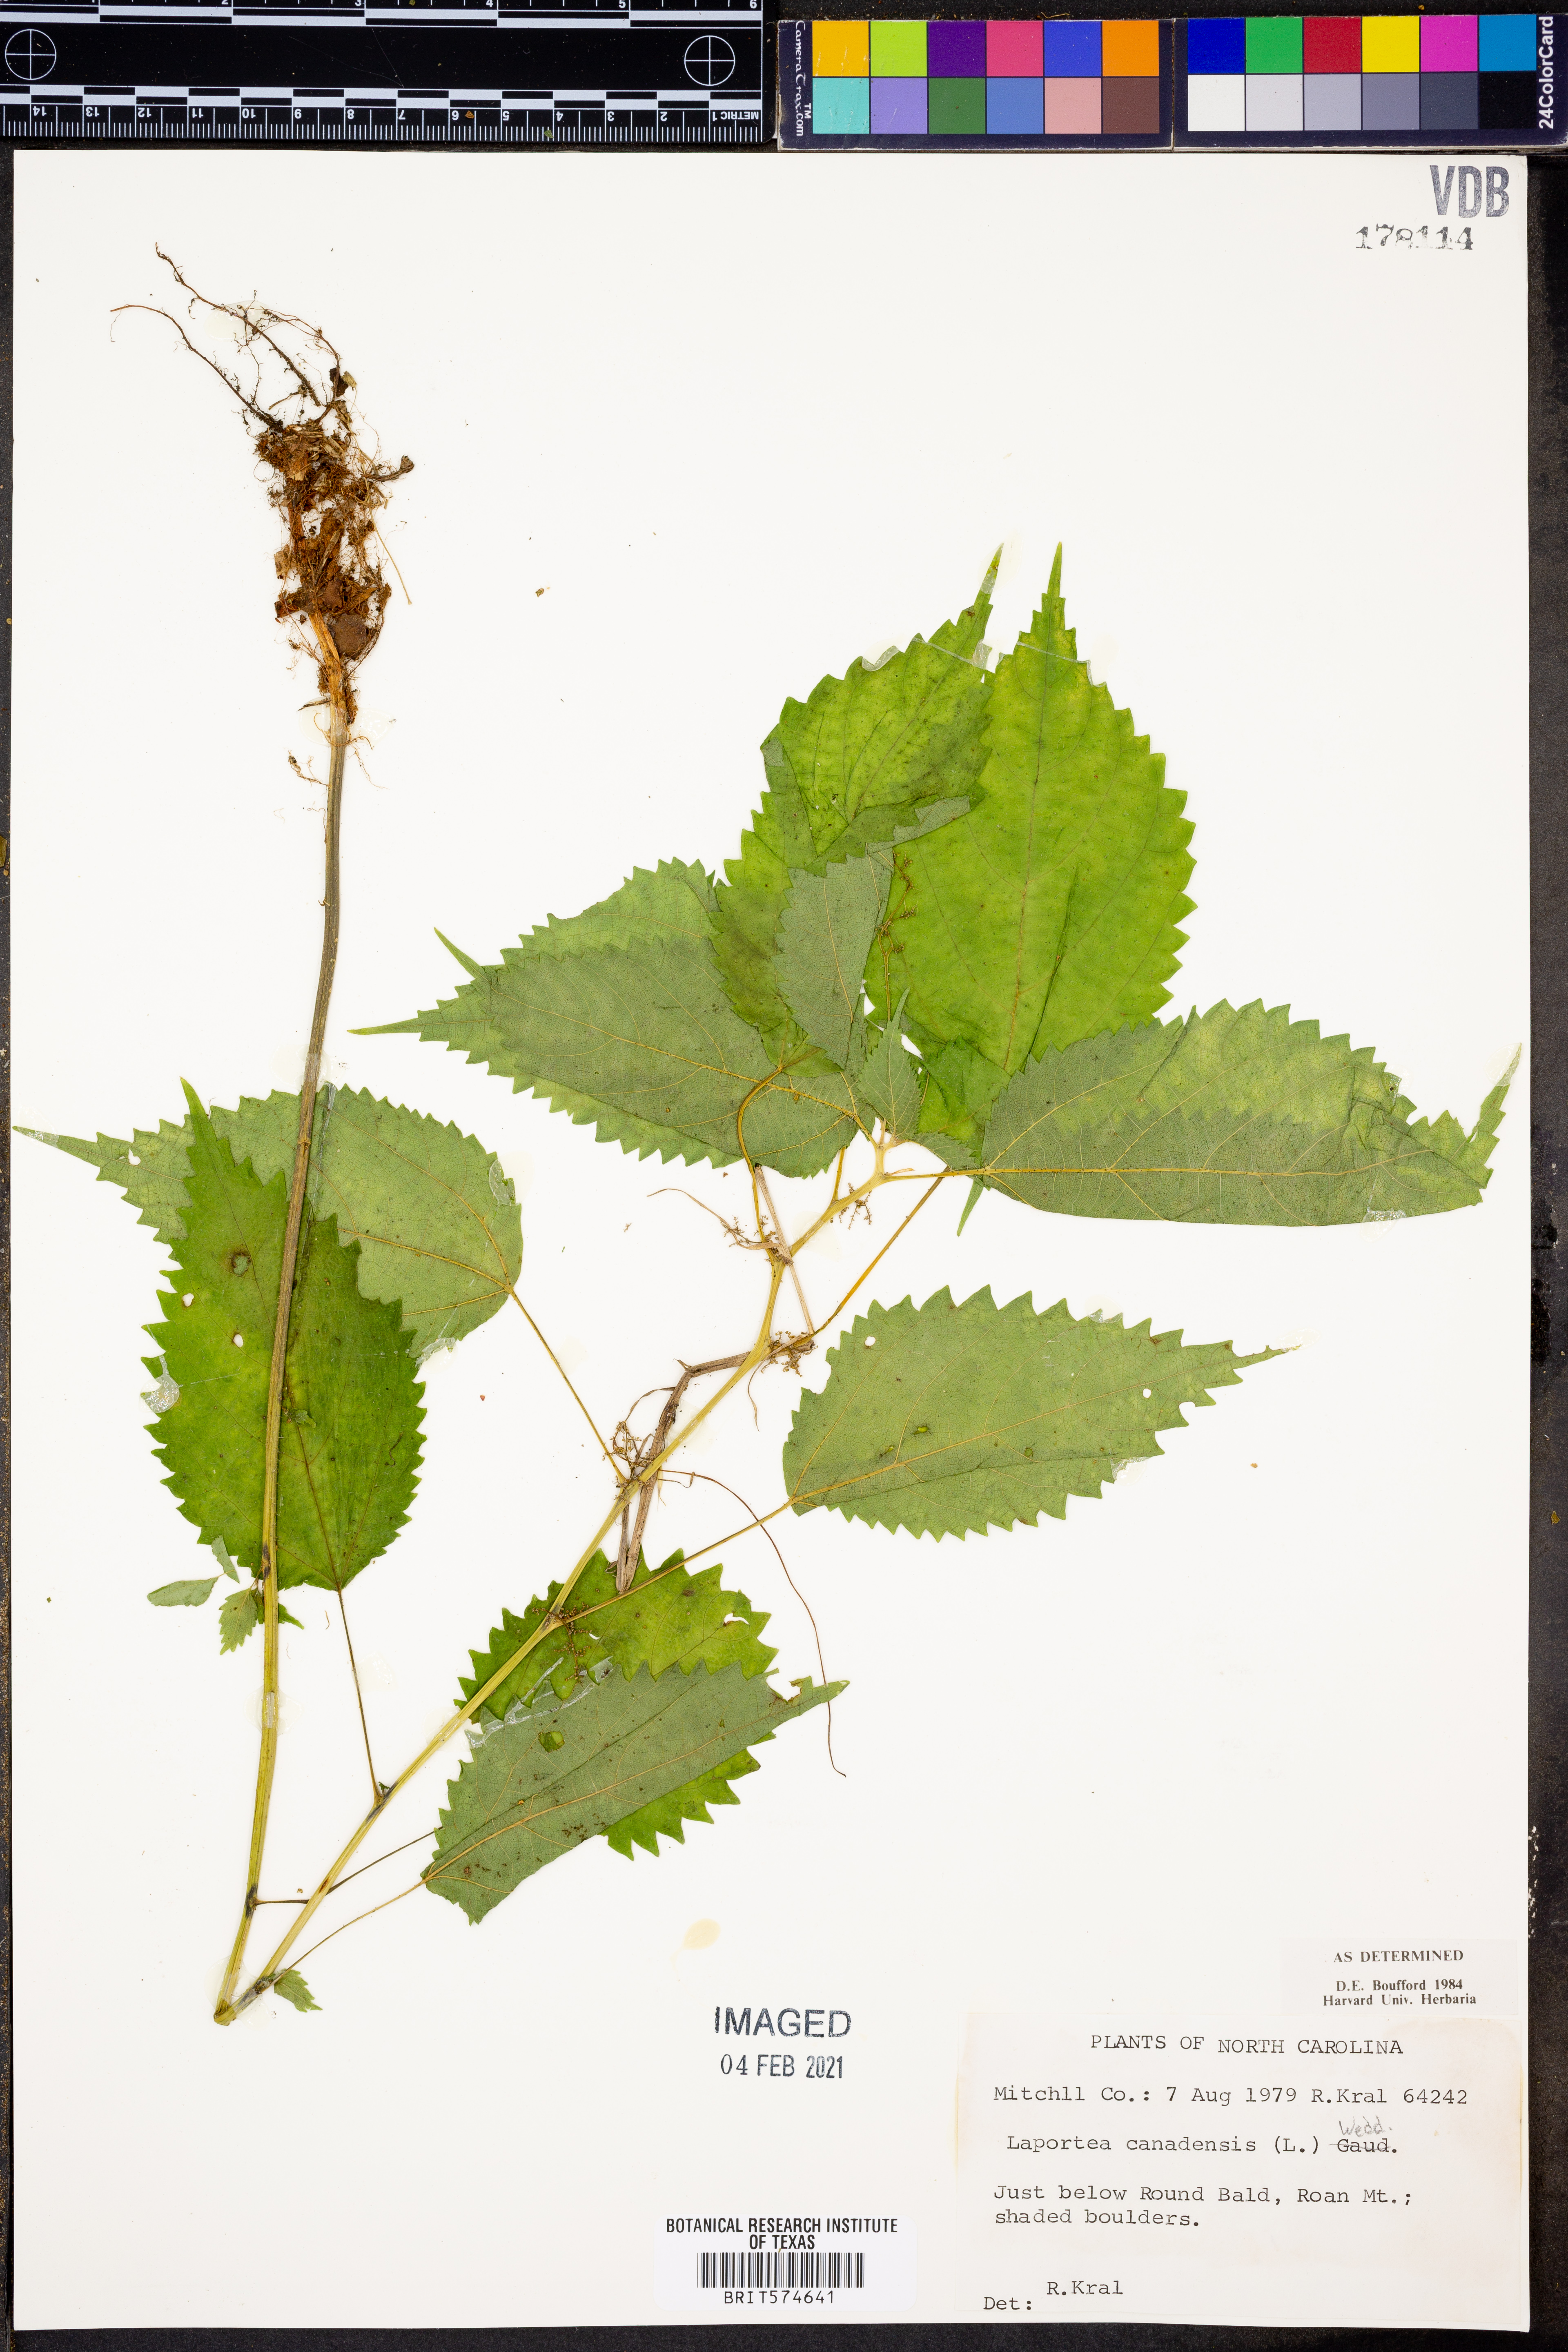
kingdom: Plantae
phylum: Tracheophyta
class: Magnoliopsida
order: Rosales
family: Urticaceae
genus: Laportea
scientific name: Laportea canadensis
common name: Canada nettle
